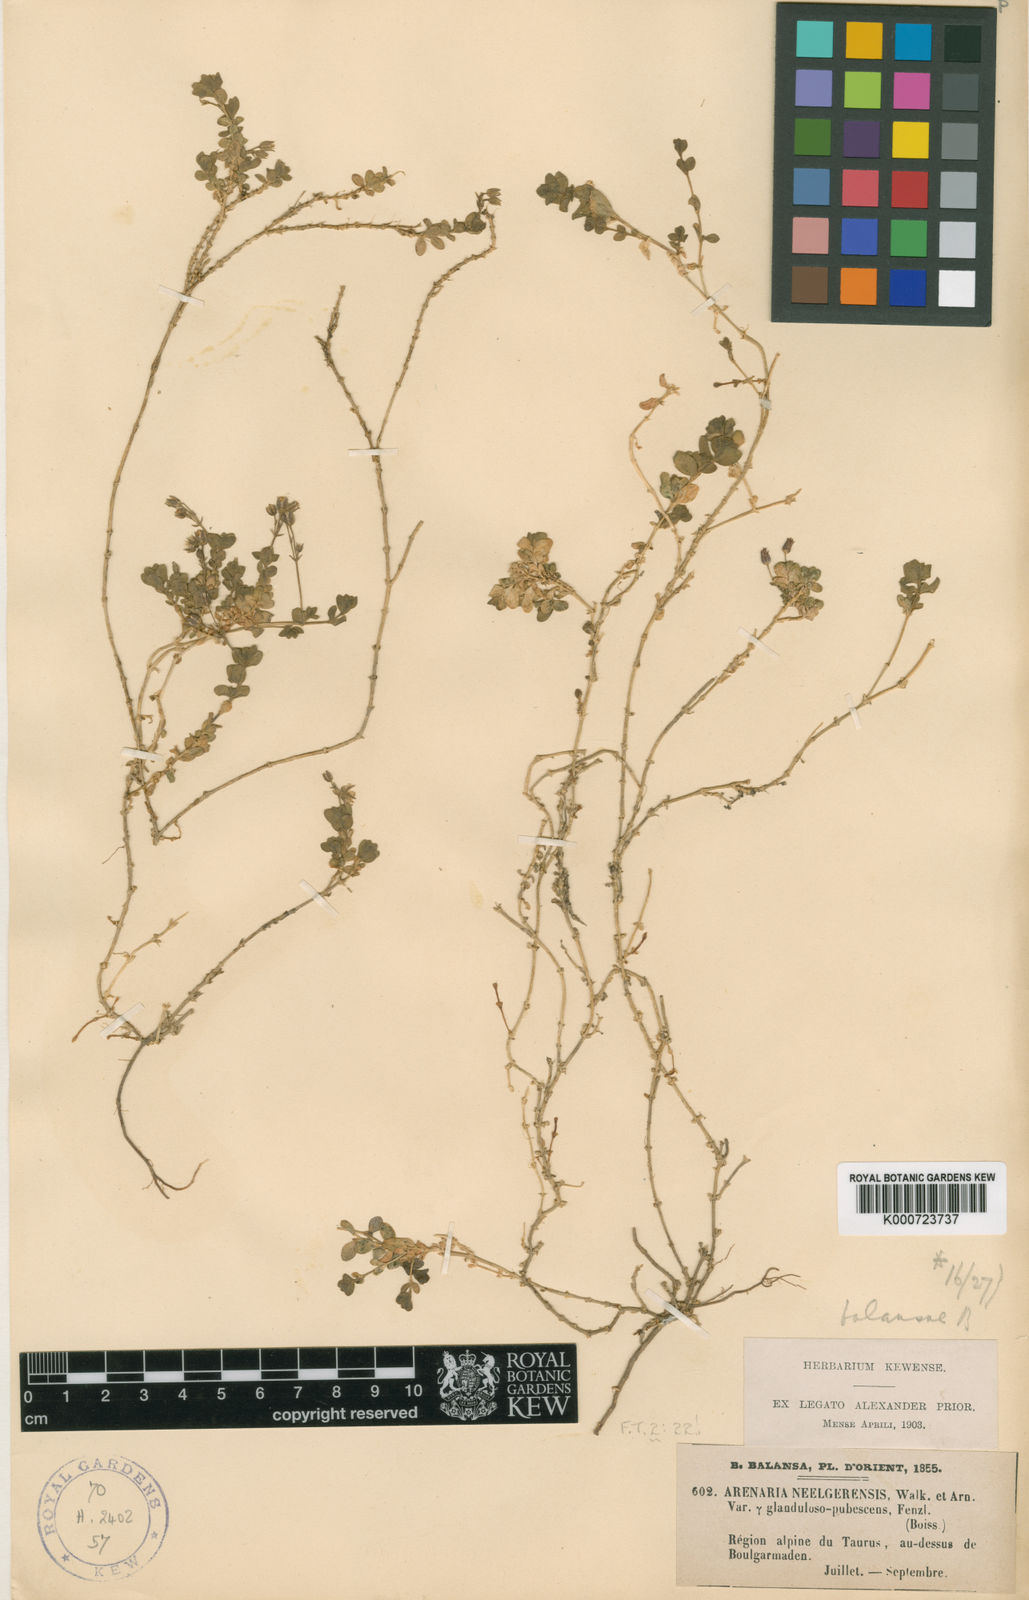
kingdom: Plantae
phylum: Tracheophyta
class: Magnoliopsida
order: Caryophyllales
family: Caryophyllaceae
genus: Arenaria
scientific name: Arenaria balansae
